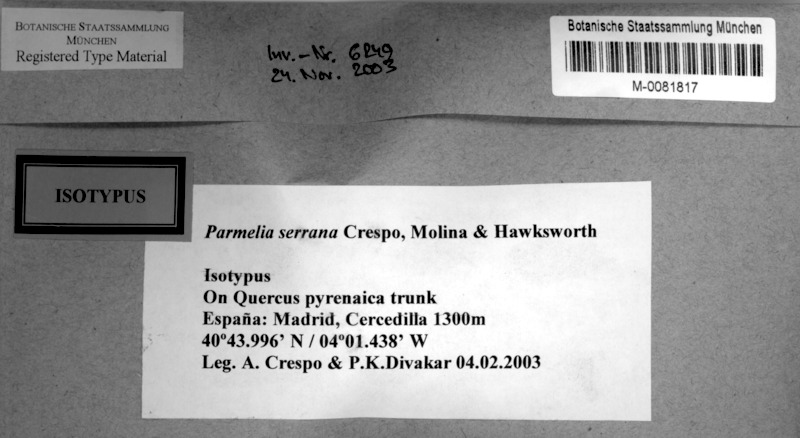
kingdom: Fungi
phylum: Ascomycota
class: Lecanoromycetes
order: Lecanorales
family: Parmeliaceae
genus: Parmelia
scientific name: Parmelia serrana
